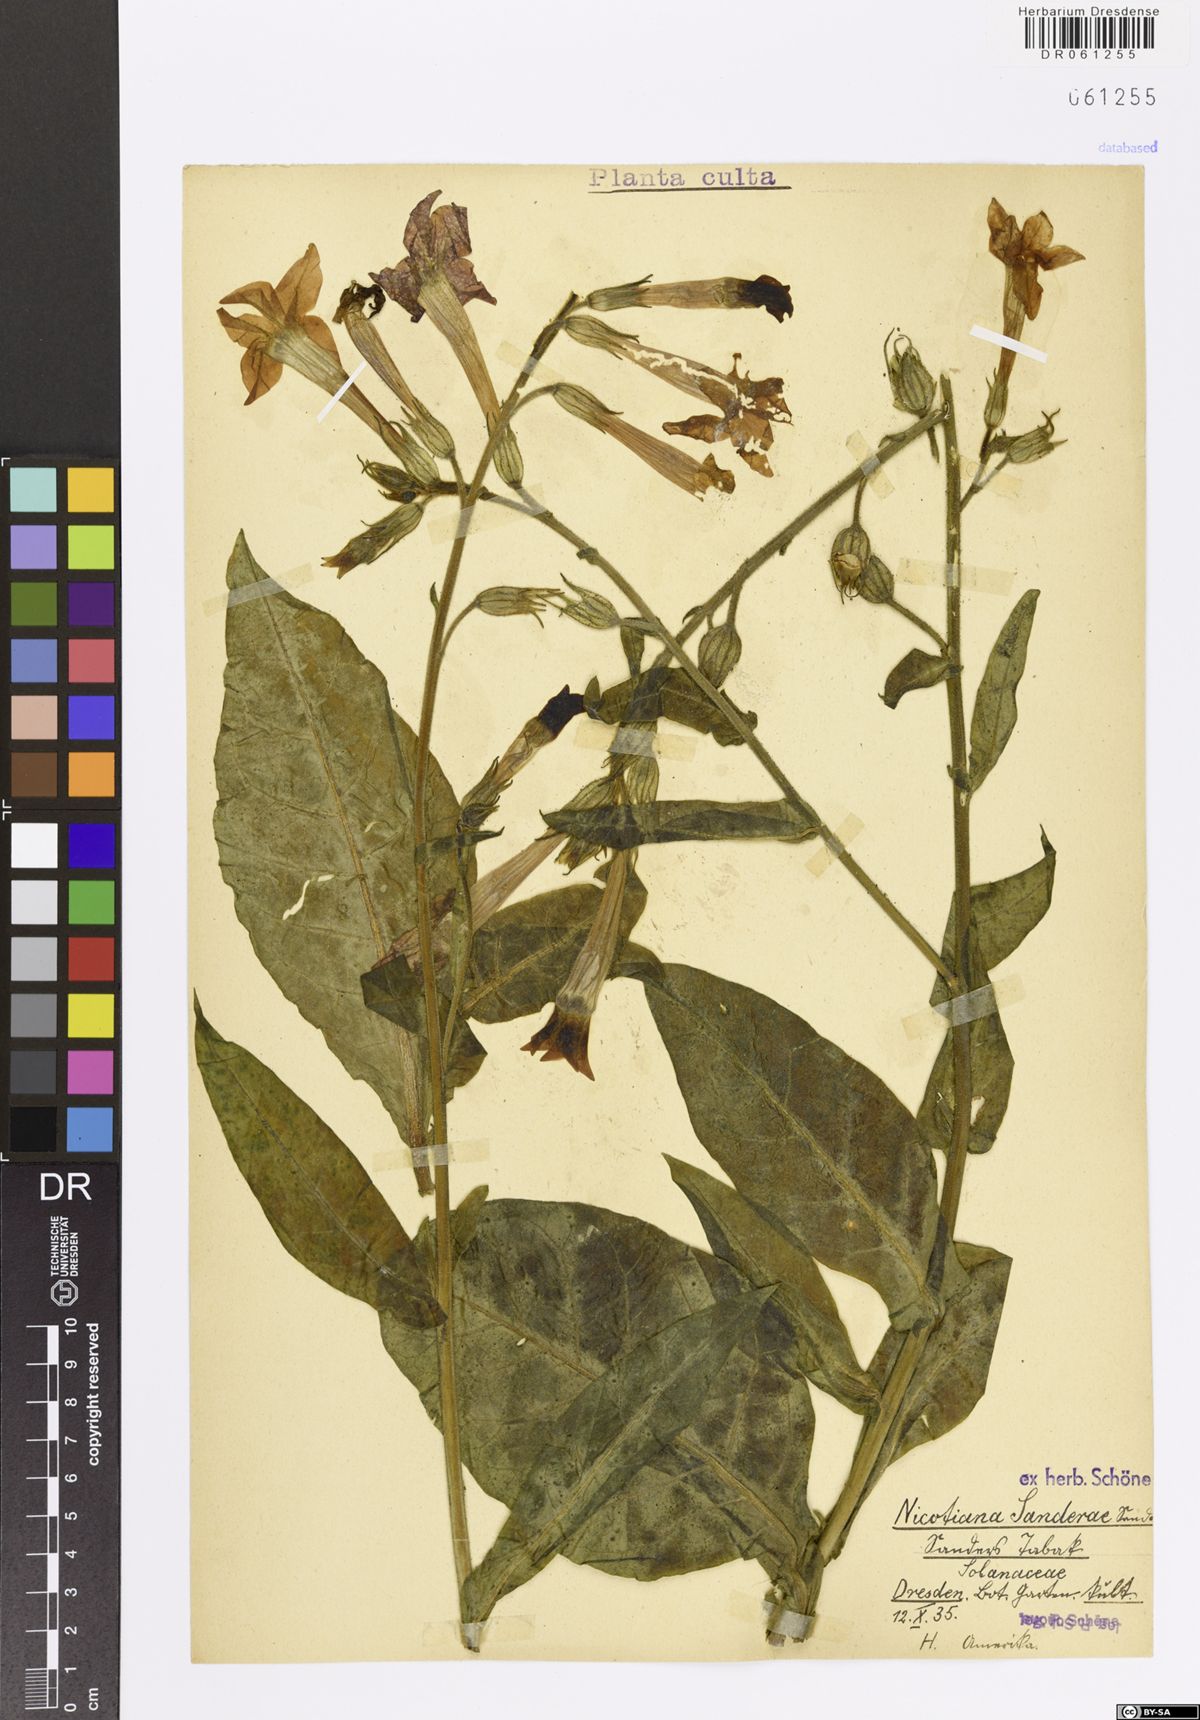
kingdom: Plantae
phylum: Tracheophyta
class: Magnoliopsida
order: Solanales
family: Solanaceae
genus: Nicotiana
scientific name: Nicotiana sanderae
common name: Tobacco
